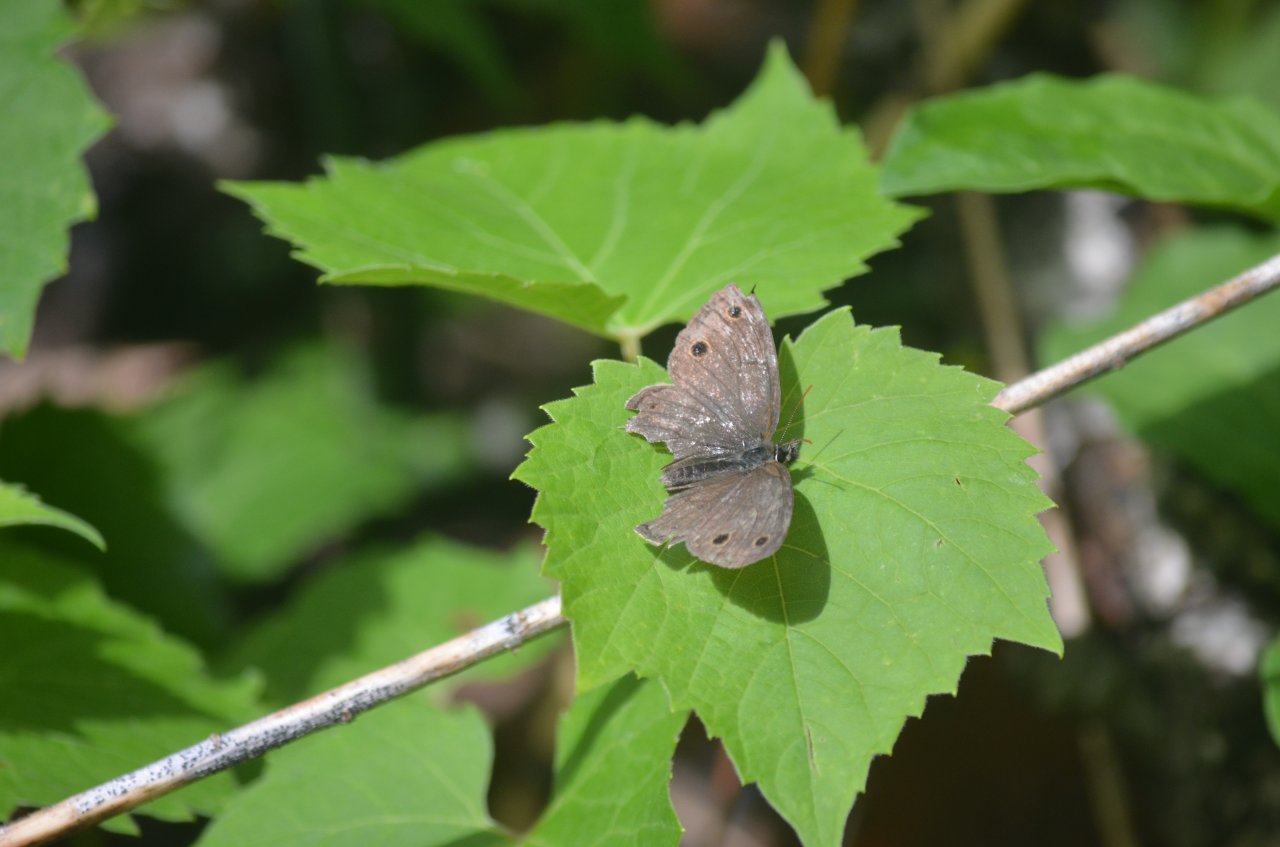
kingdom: Animalia
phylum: Arthropoda
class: Insecta
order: Lepidoptera
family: Nymphalidae
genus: Euptychia
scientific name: Euptychia cymela
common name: Little Wood Satyr
